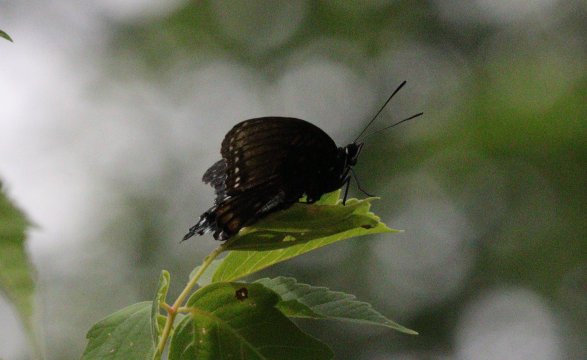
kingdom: Animalia
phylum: Arthropoda
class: Insecta
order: Lepidoptera
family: Nymphalidae
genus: Limenitis
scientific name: Limenitis arthemis
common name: Red-spotted Admiral
